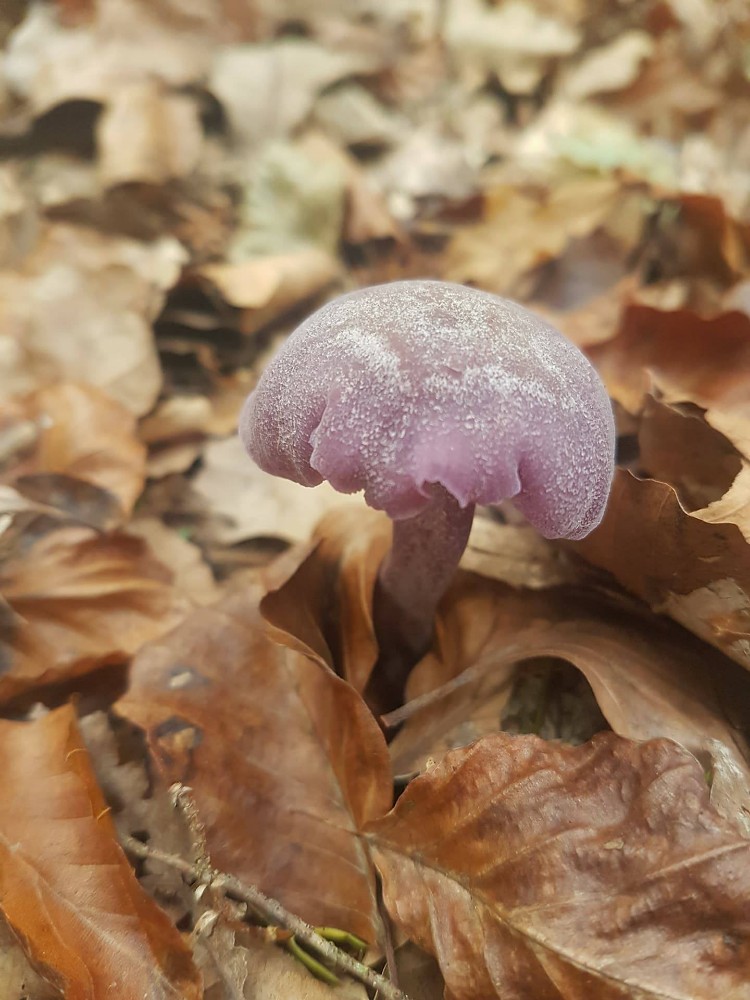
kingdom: Fungi
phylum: Basidiomycota
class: Agaricomycetes
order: Agaricales
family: Hydnangiaceae
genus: Laccaria
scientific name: Laccaria amethystina
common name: violet ametysthat
